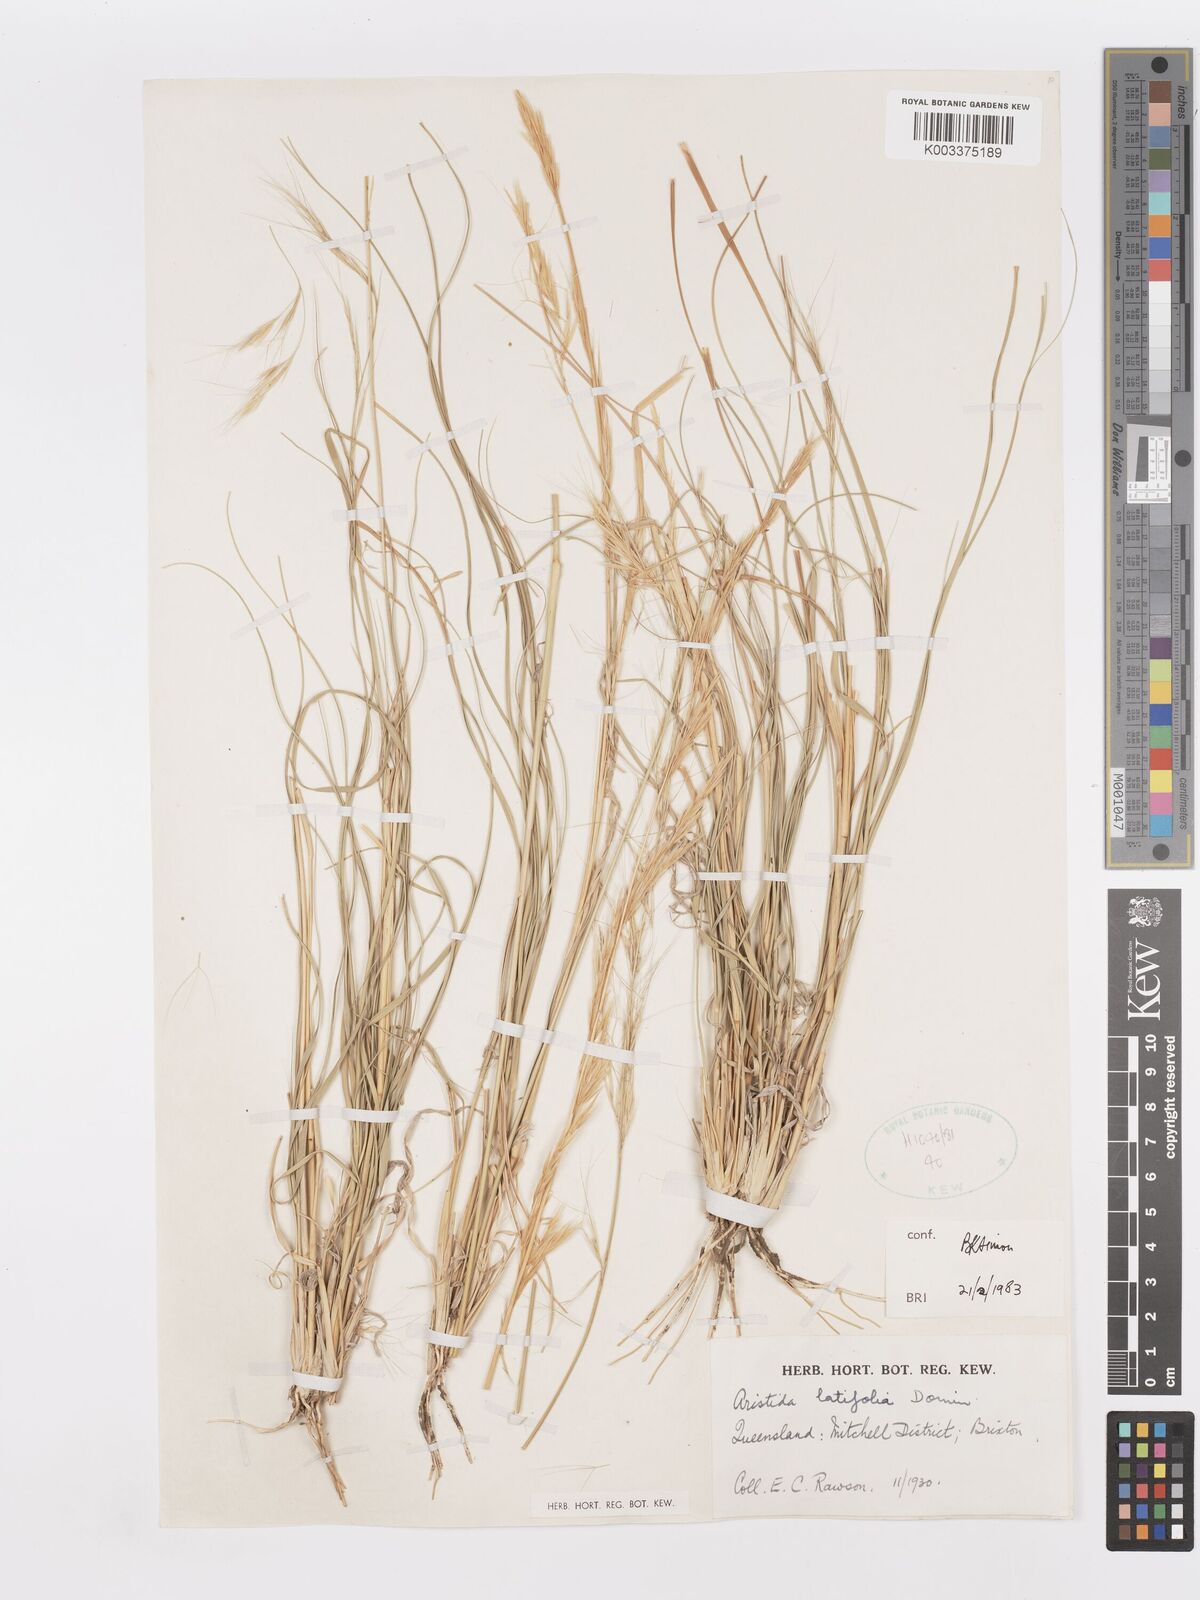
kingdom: Plantae
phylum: Tracheophyta
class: Liliopsida
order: Poales
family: Poaceae
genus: Aristida
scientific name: Aristida latifolia
